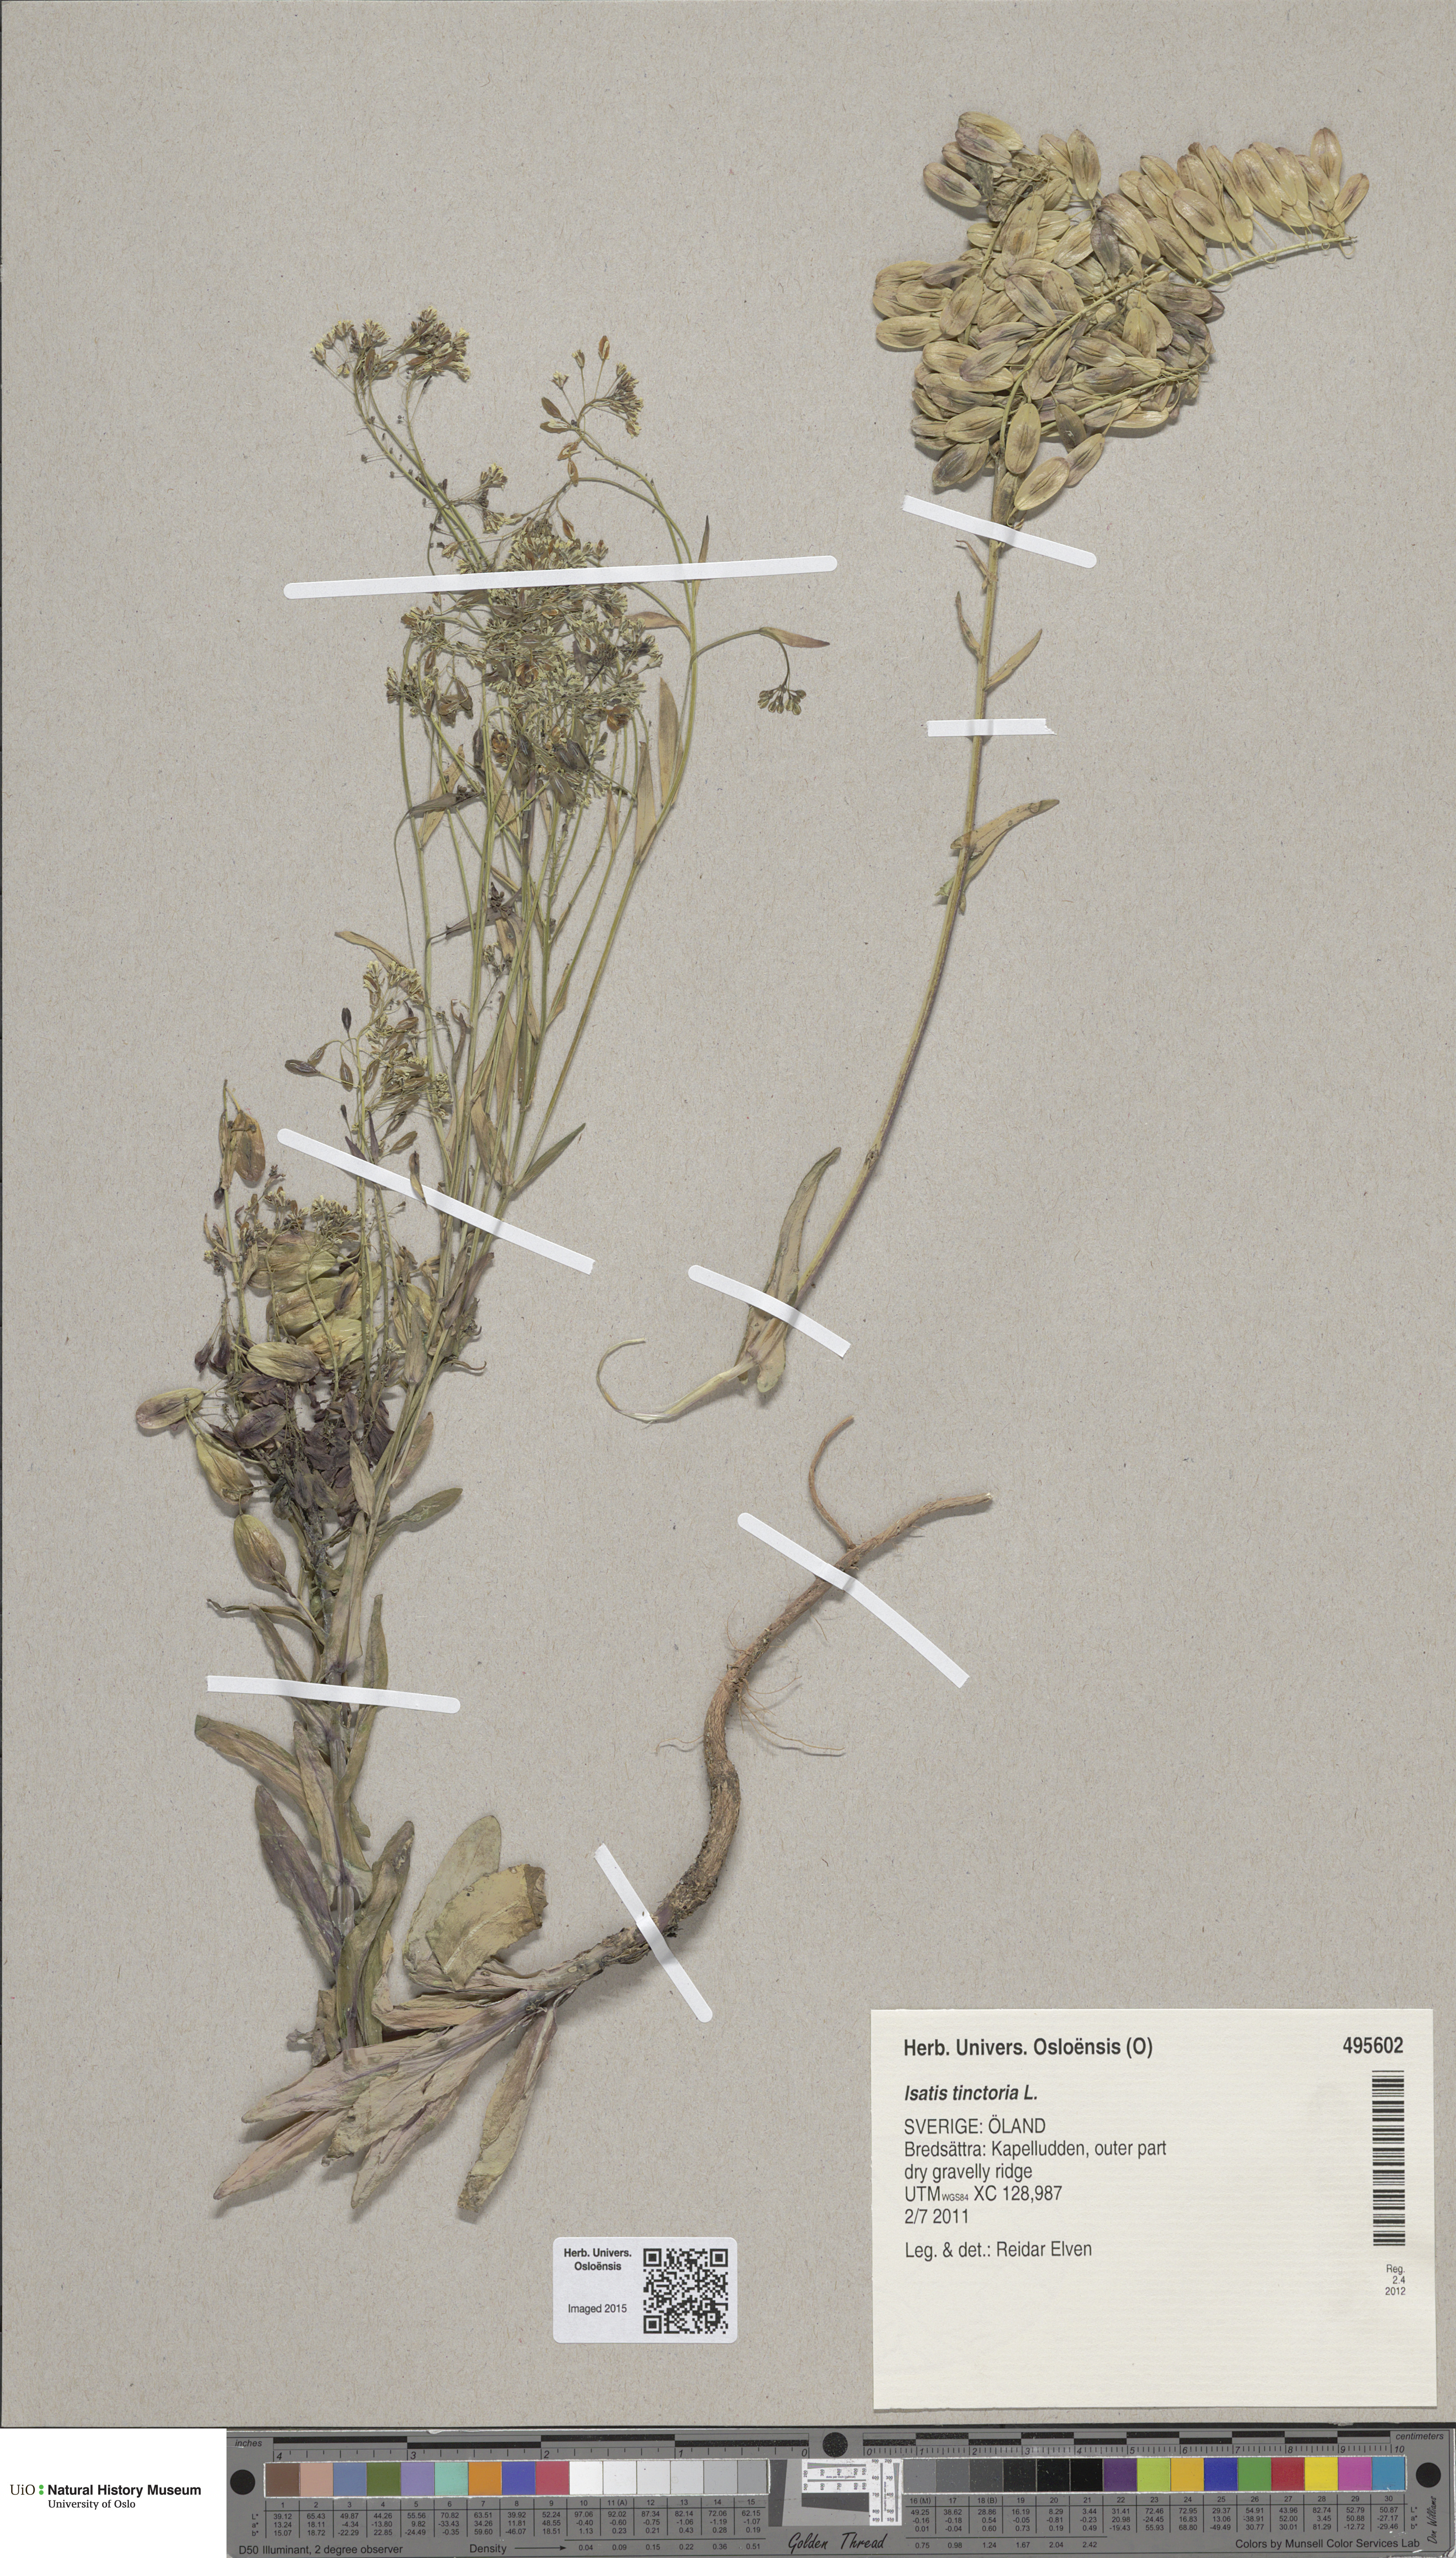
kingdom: Plantae
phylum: Tracheophyta
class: Magnoliopsida
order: Brassicales
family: Brassicaceae
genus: Isatis
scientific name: Isatis tinctoria
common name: Woad
